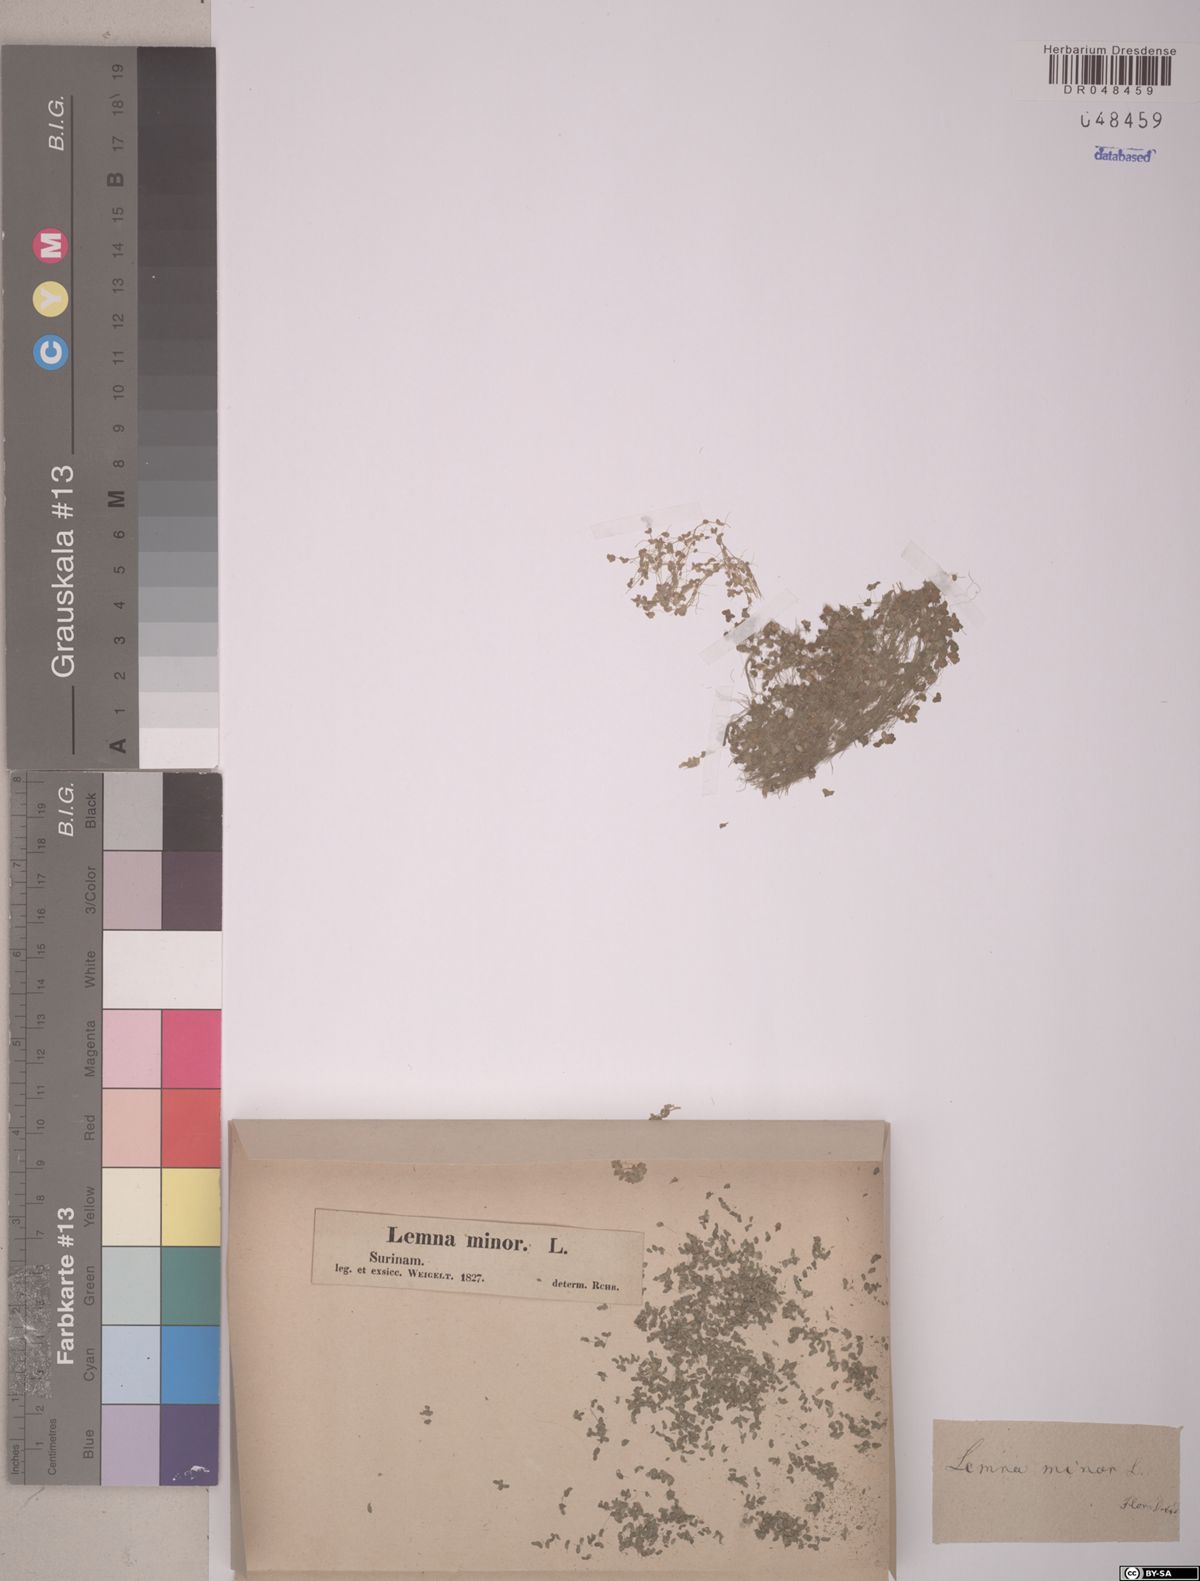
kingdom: Plantae
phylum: Tracheophyta
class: Liliopsida
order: Alismatales
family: Araceae
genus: Lemna
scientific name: Lemna minor
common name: Common duckweed
